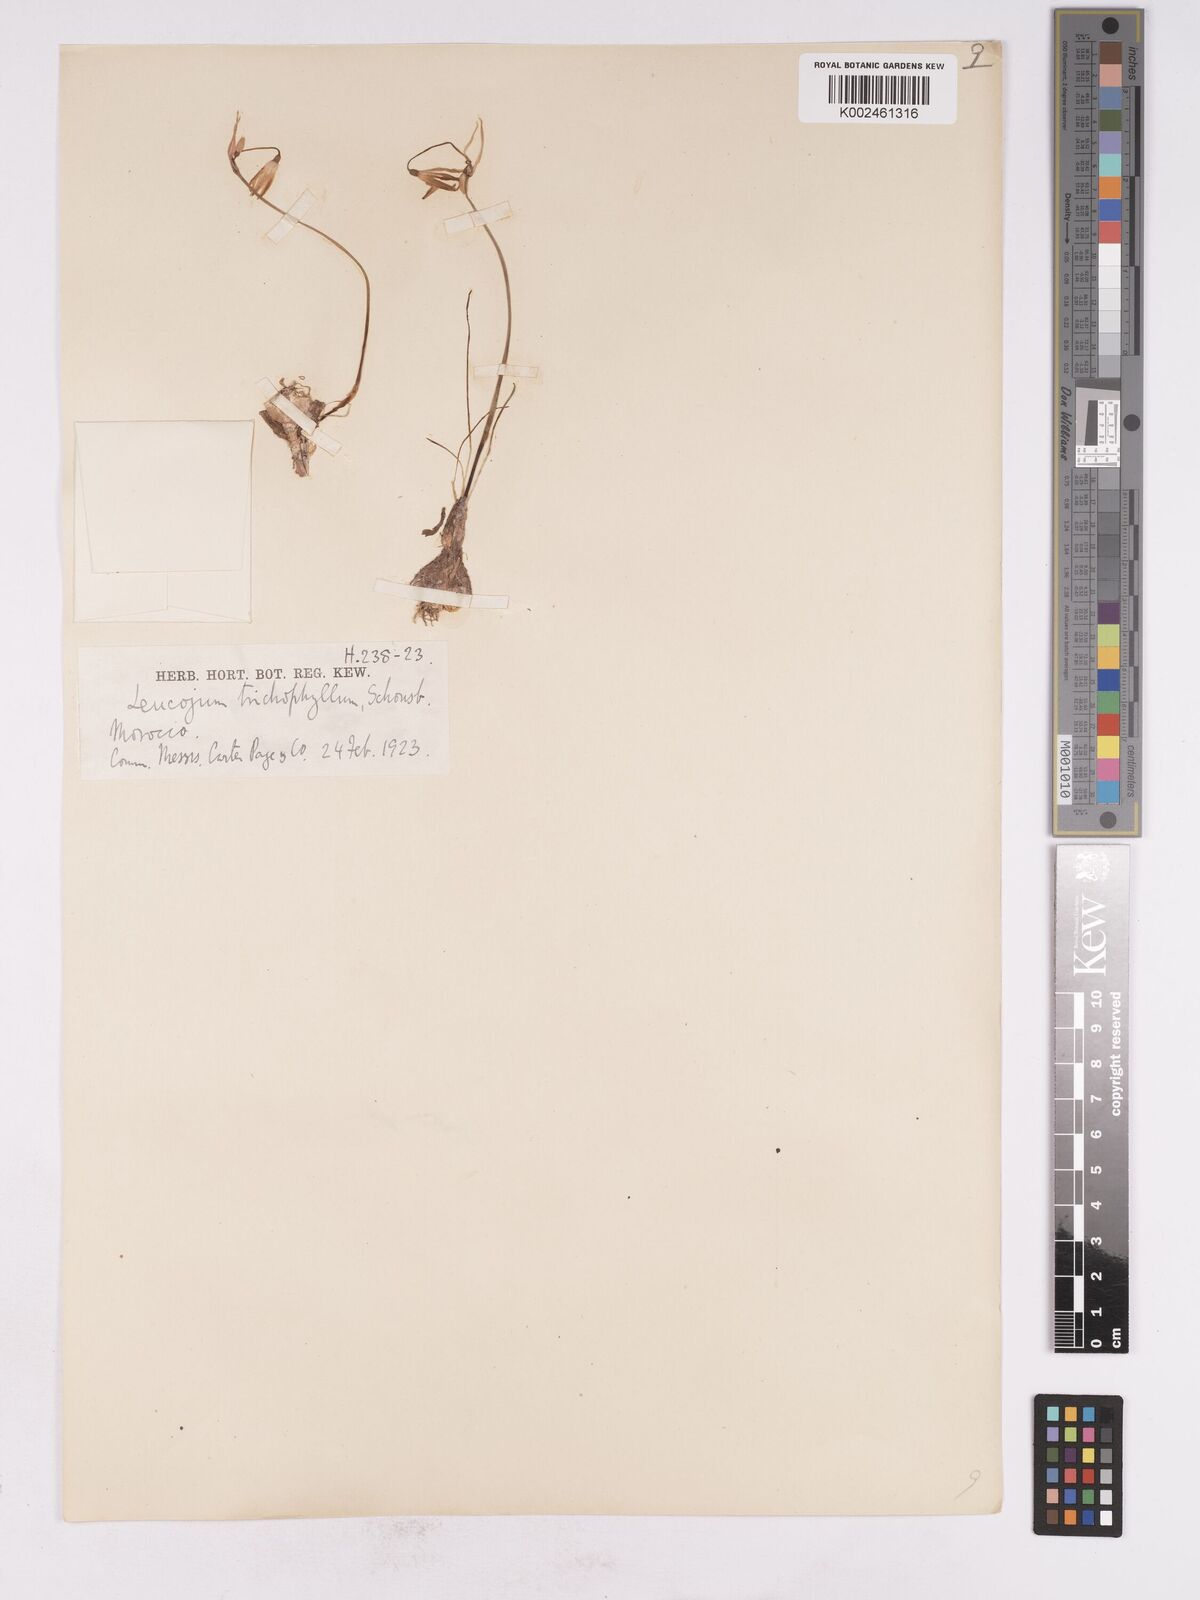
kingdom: Plantae
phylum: Tracheophyta
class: Liliopsida
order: Asparagales
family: Amaryllidaceae
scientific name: Amaryllidaceae
